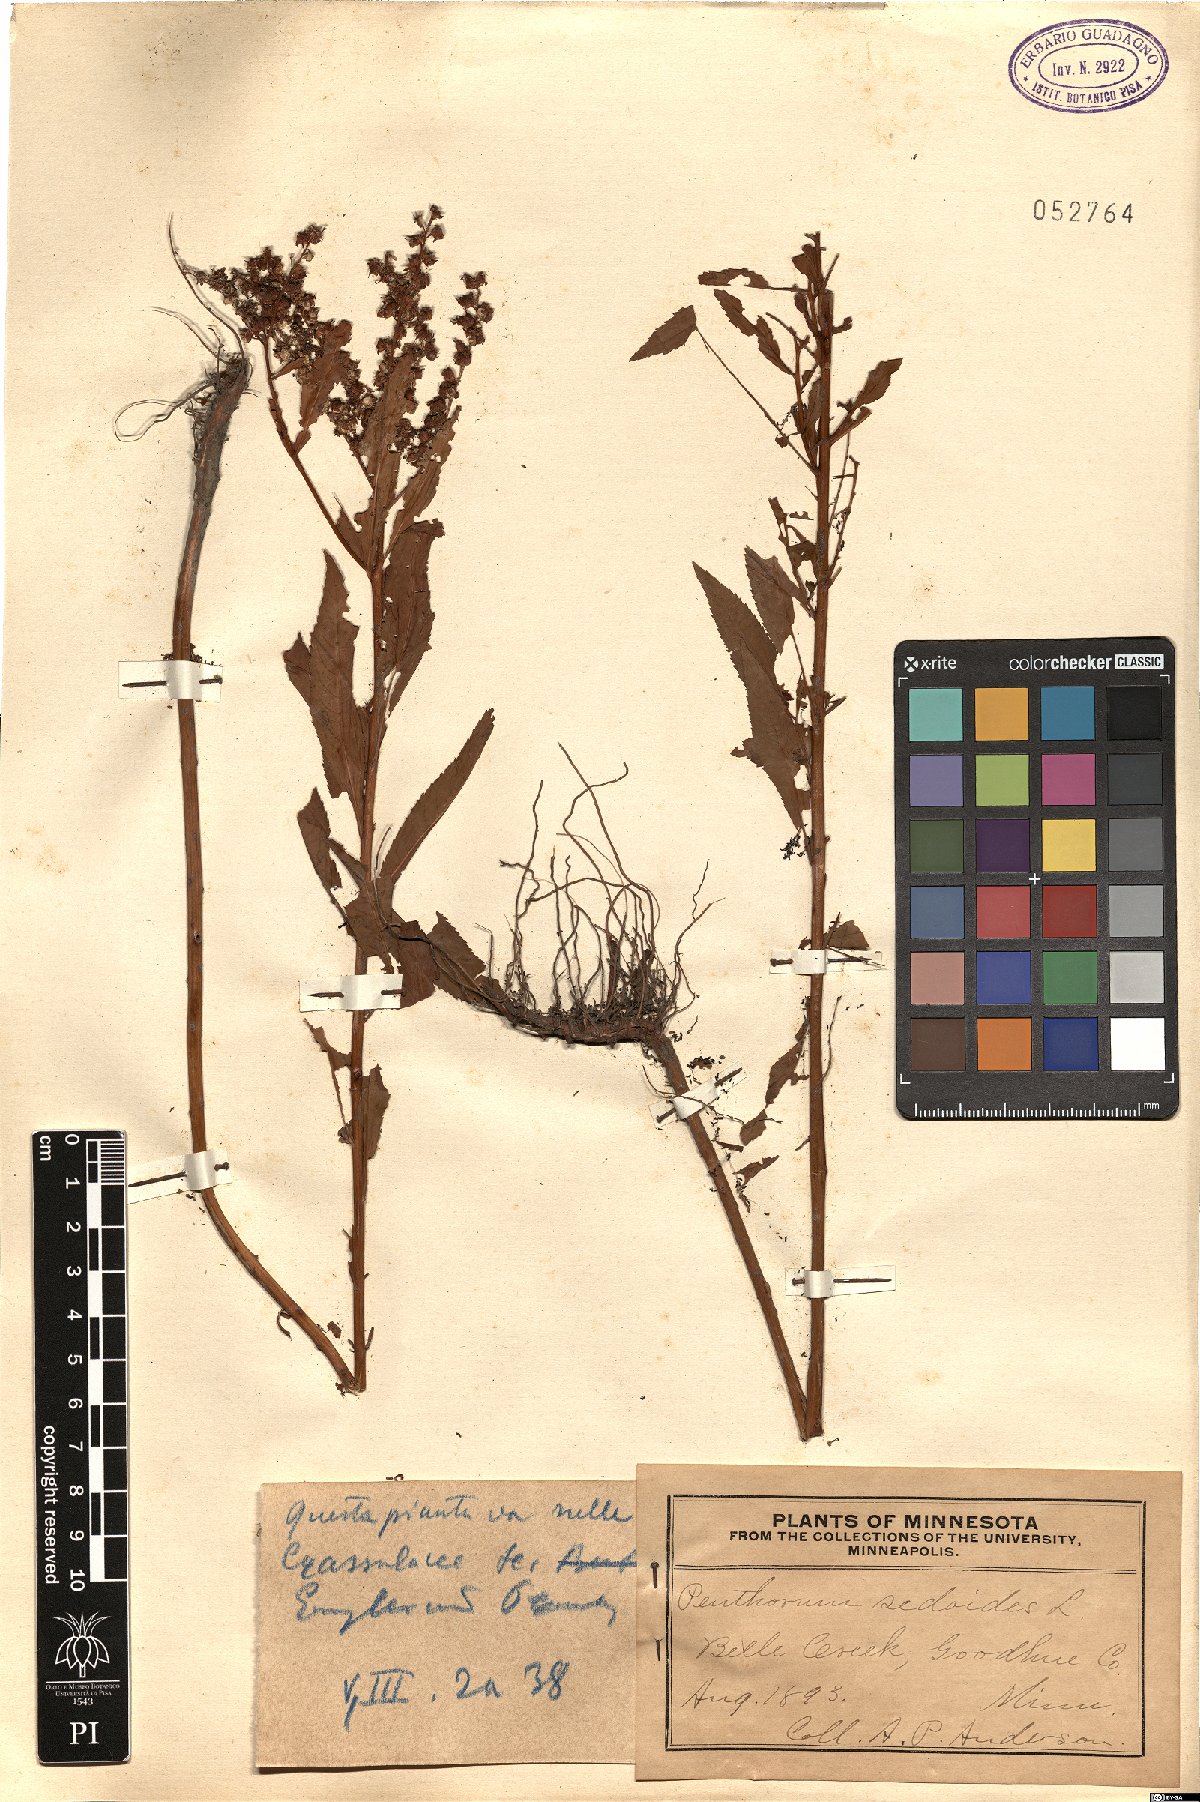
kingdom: Plantae
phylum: Tracheophyta
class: Magnoliopsida
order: Saxifragales
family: Penthoraceae
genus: Penthorum
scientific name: Penthorum sedoides
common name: Ditch stonecrop
